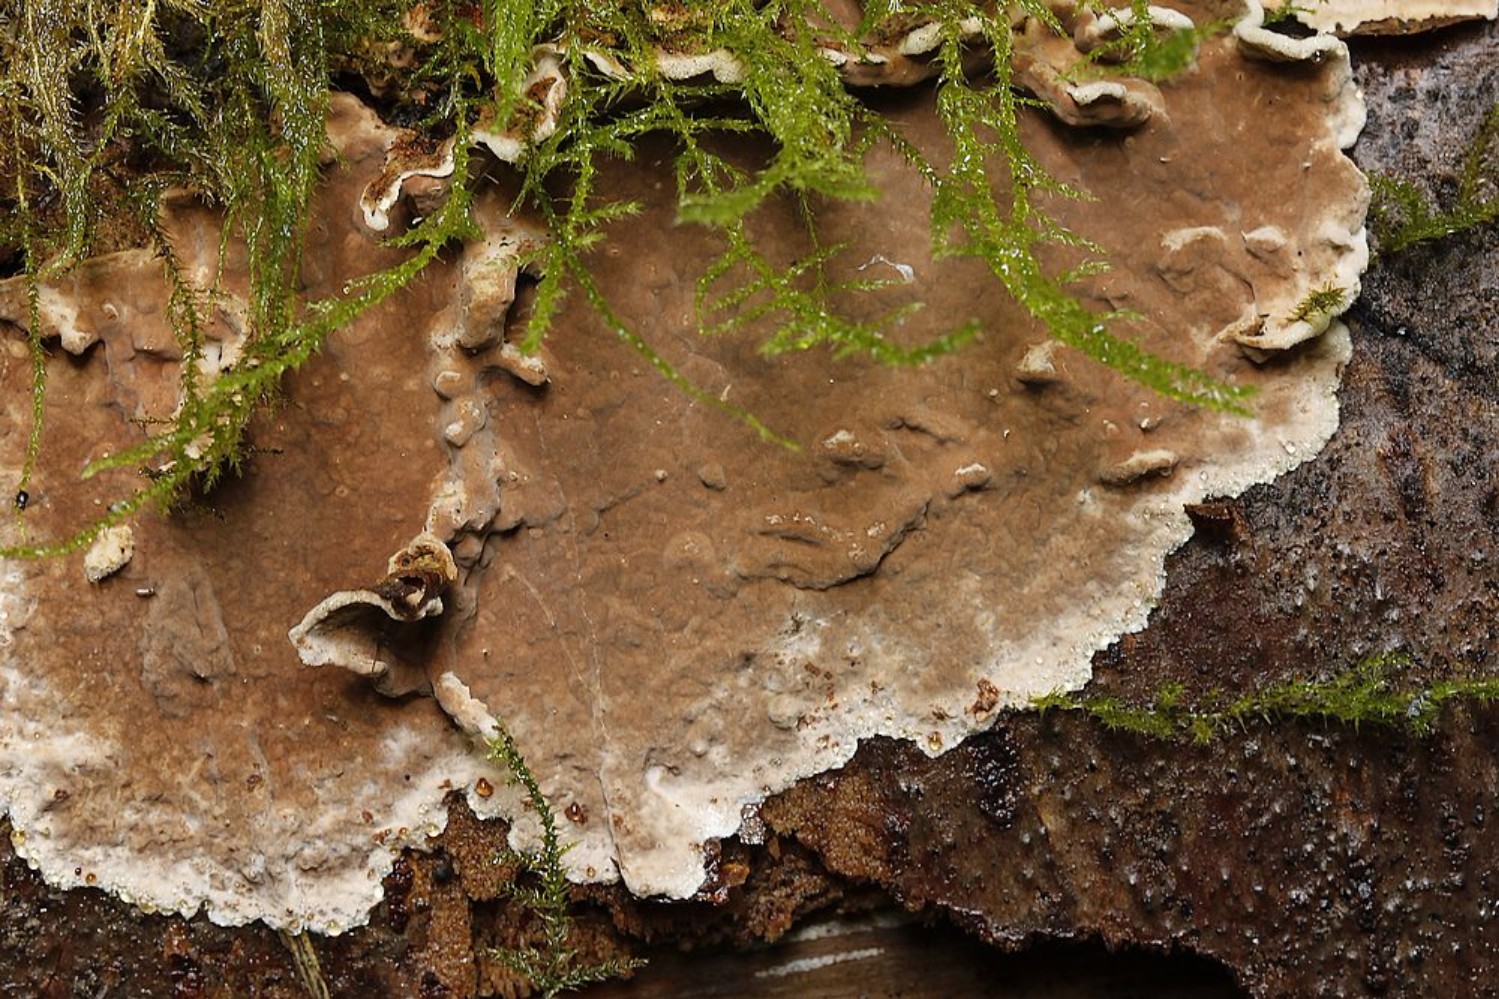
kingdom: Fungi
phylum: Basidiomycota
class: Agaricomycetes
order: Russulales
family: Echinodontiaceae
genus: Amylostereum
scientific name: Amylostereum chailletii
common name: gran-lædersvamp
